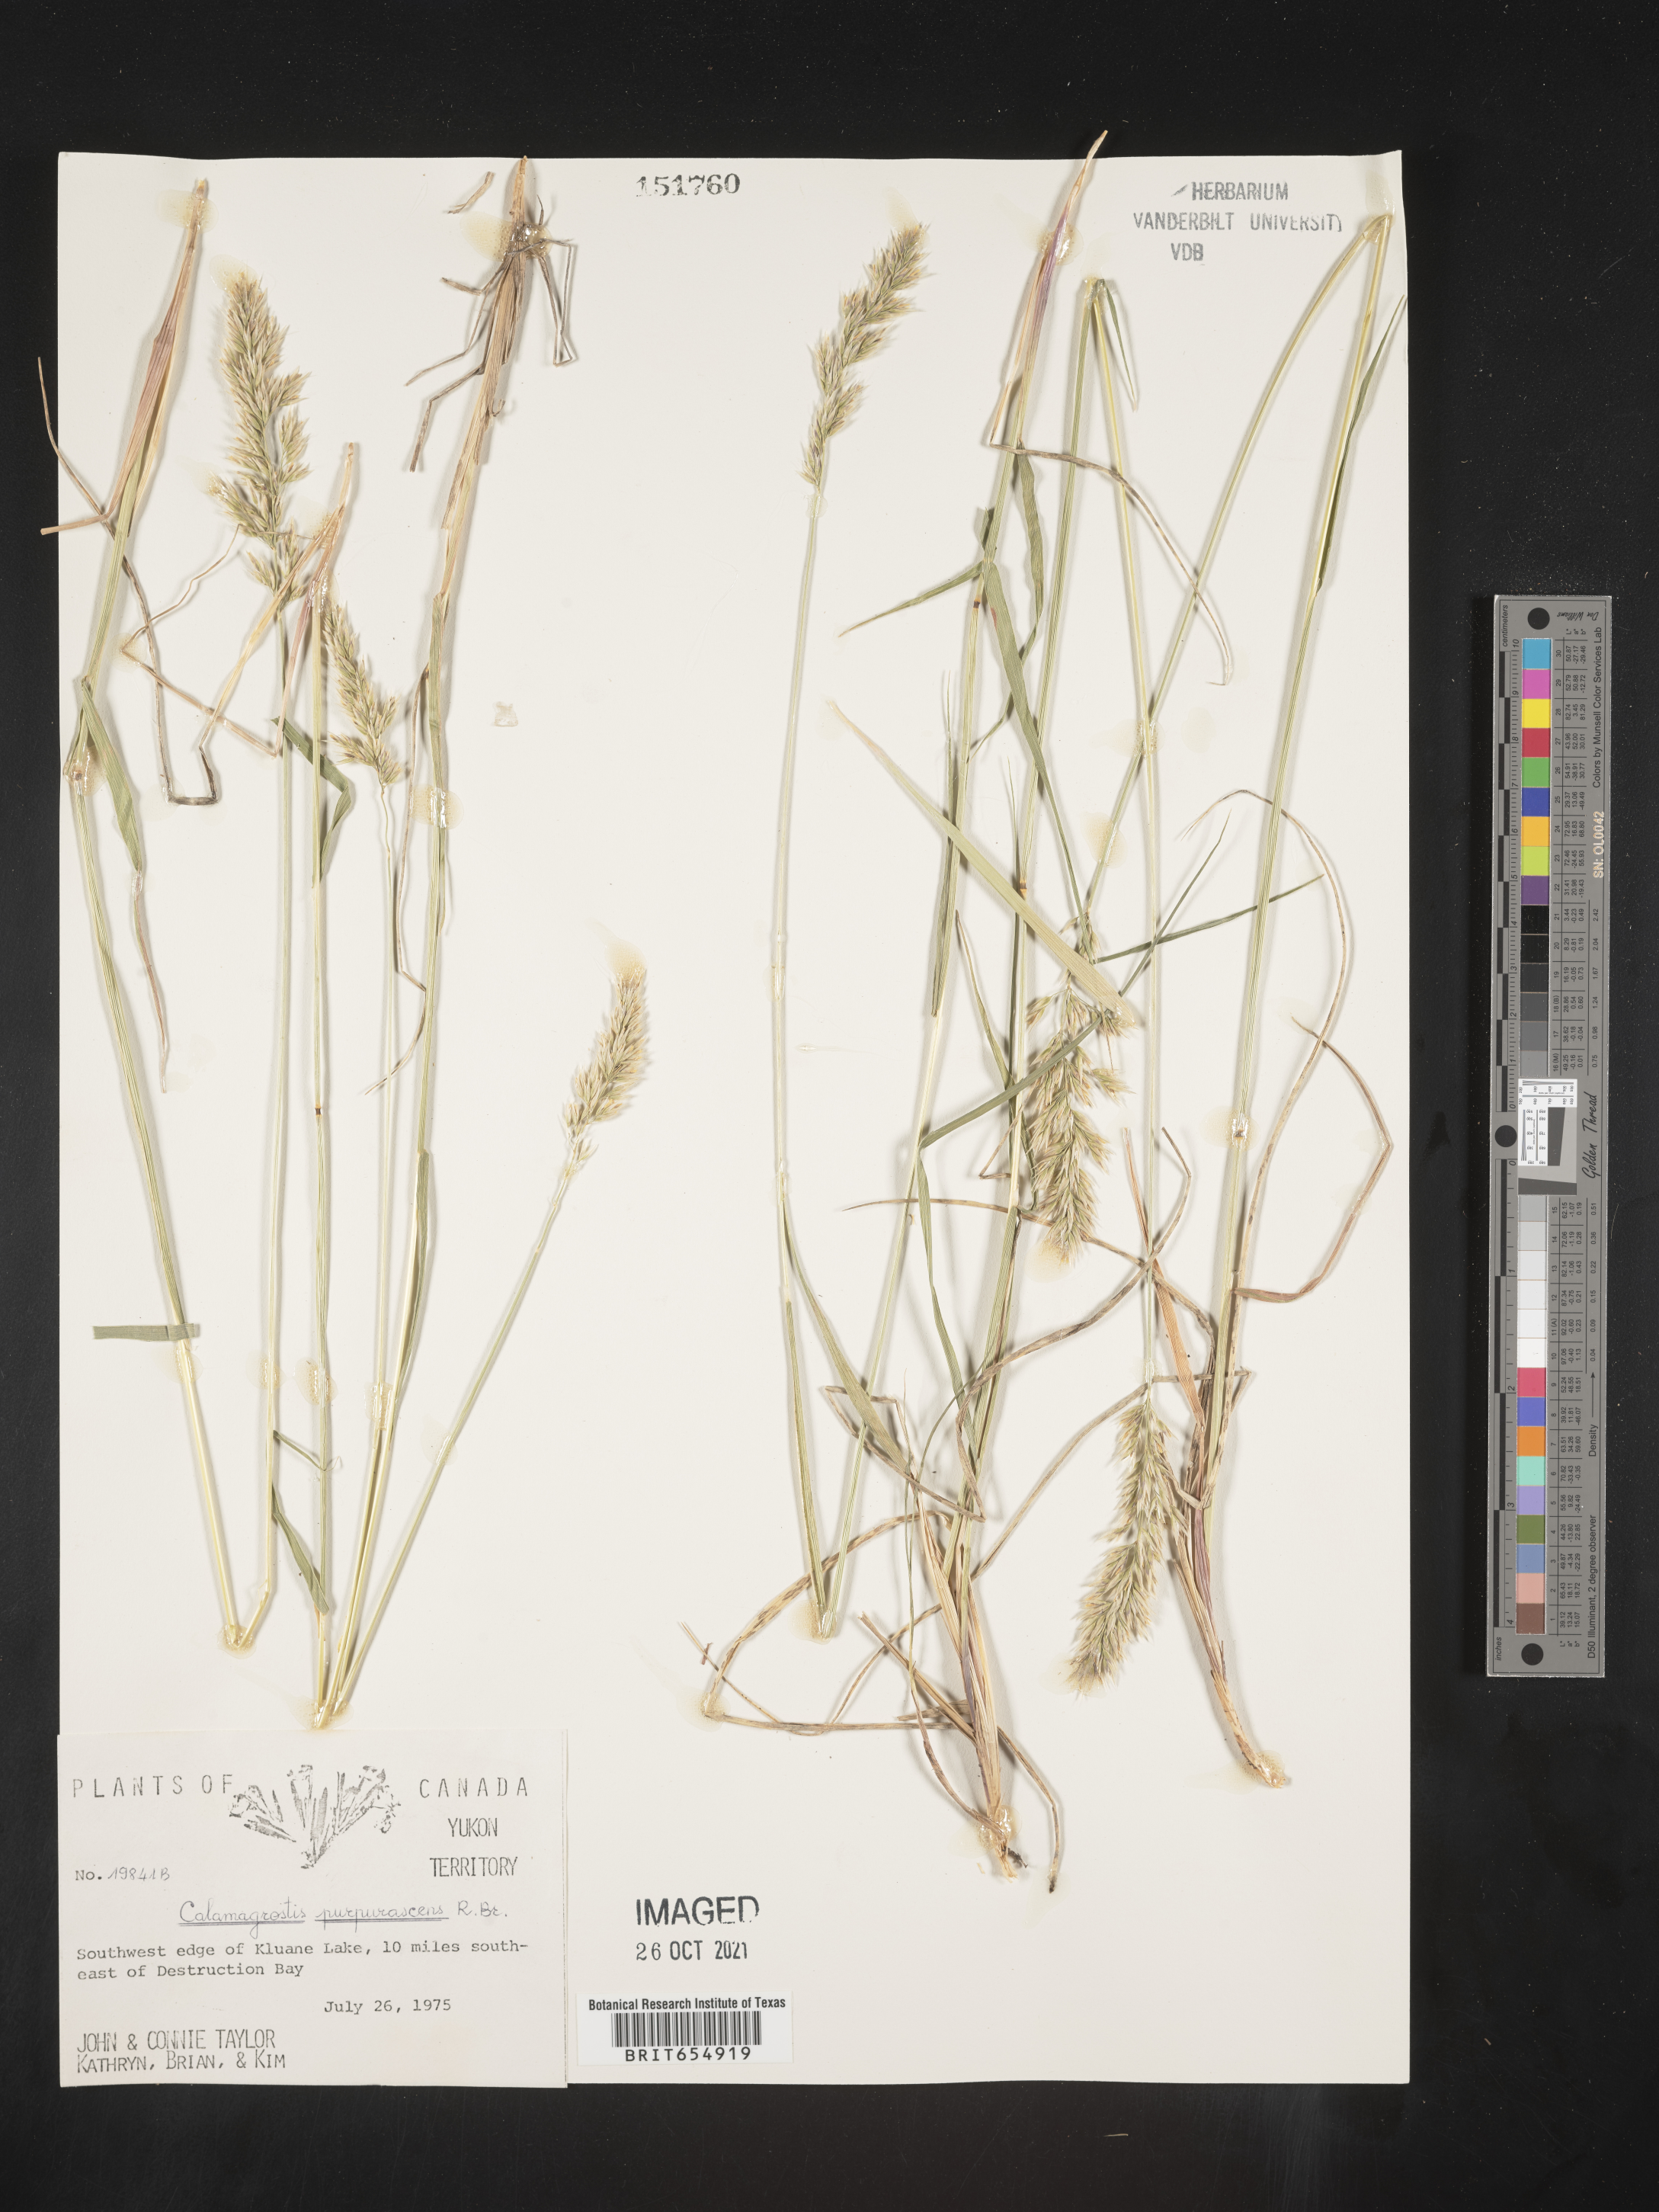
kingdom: Plantae
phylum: Tracheophyta
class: Liliopsida
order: Poales
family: Poaceae
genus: Calamagrostis
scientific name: Calamagrostis
